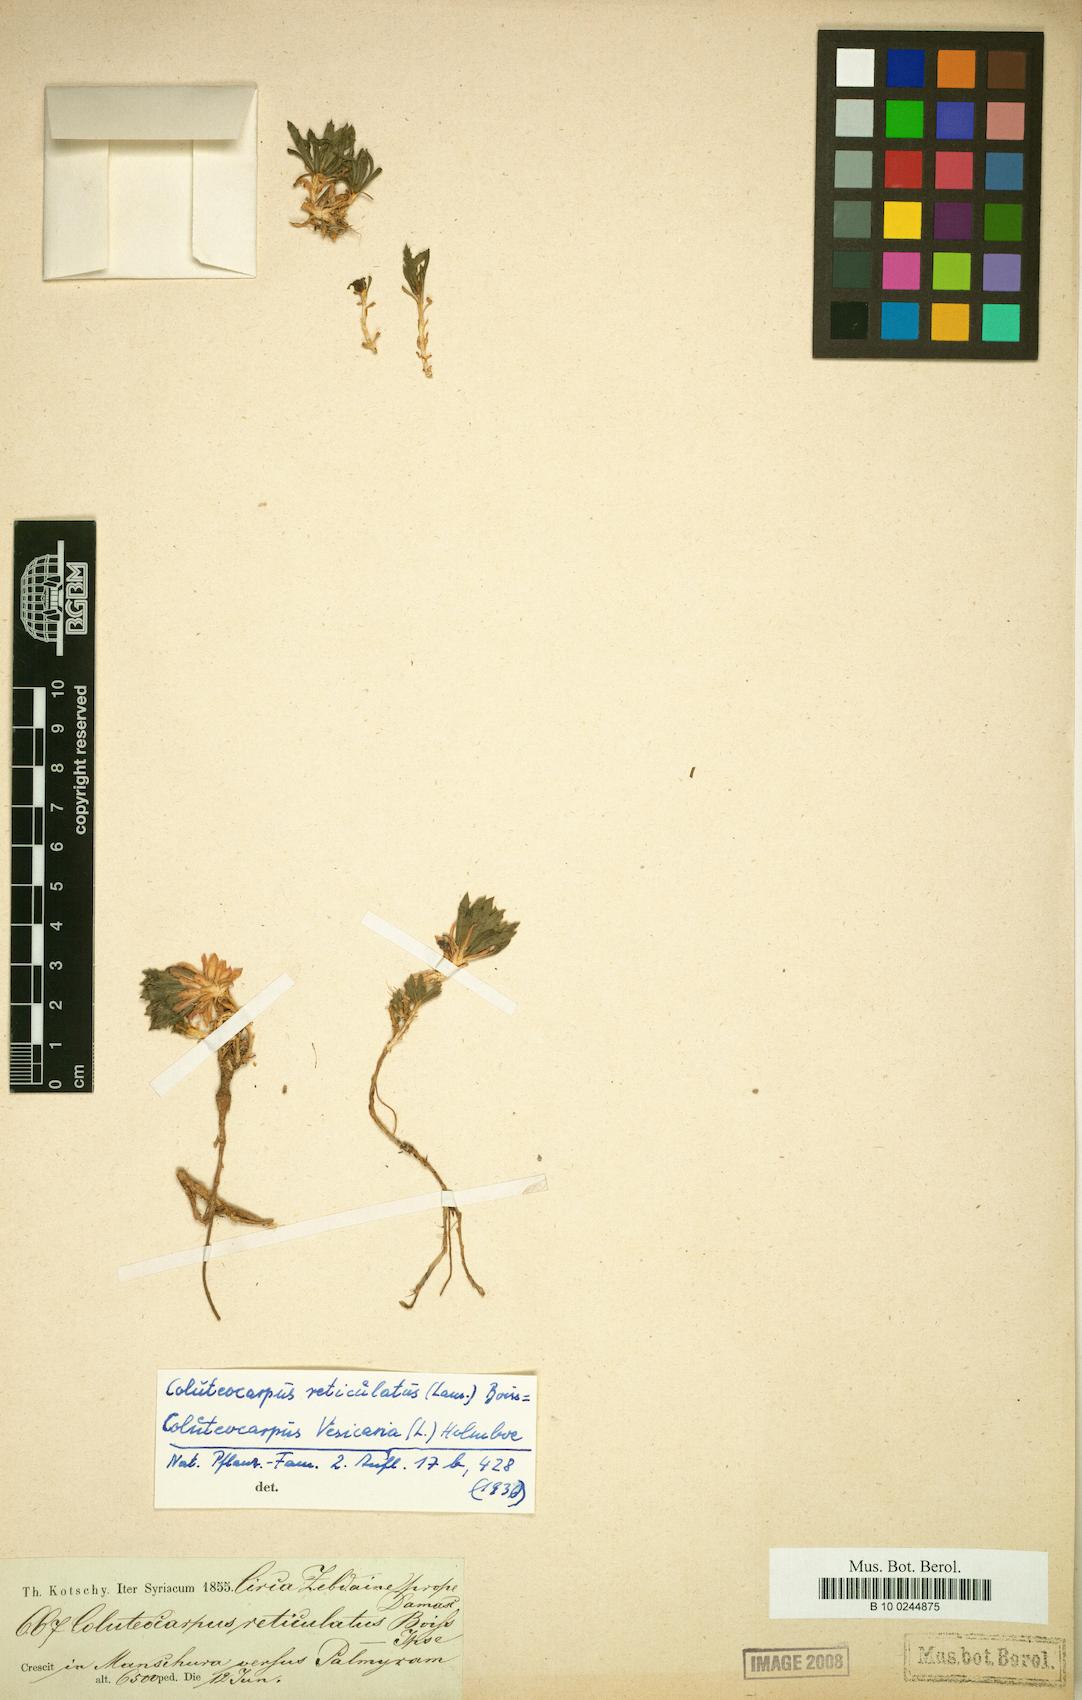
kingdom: Plantae
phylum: Tracheophyta
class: Magnoliopsida
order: Brassicales
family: Brassicaceae
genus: Noccaea
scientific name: Noccaea vesicaria
